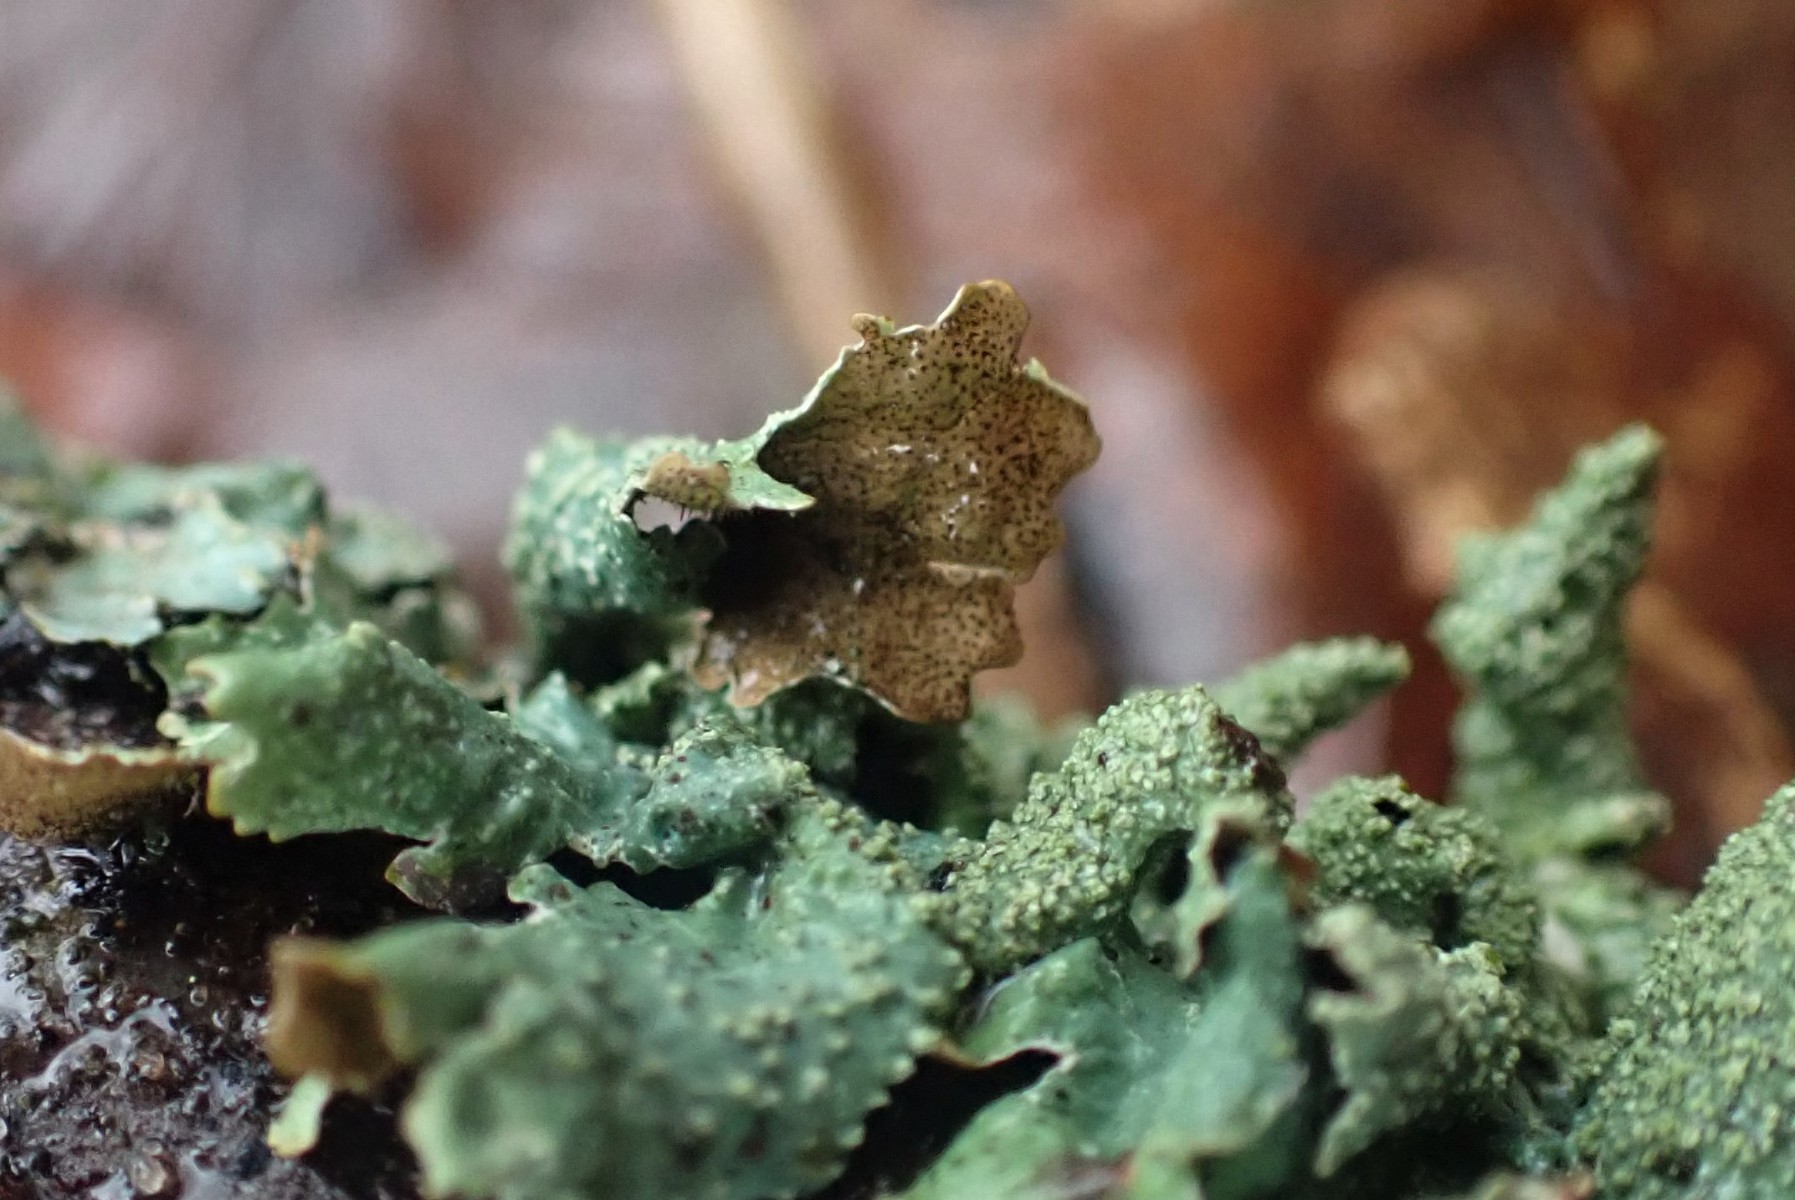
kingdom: Fungi
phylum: Ascomycota
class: Lecanoromycetes
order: Lecanorales
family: Parmeliaceae
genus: Parmelia
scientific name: Parmelia submontana
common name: langlobet skållav
